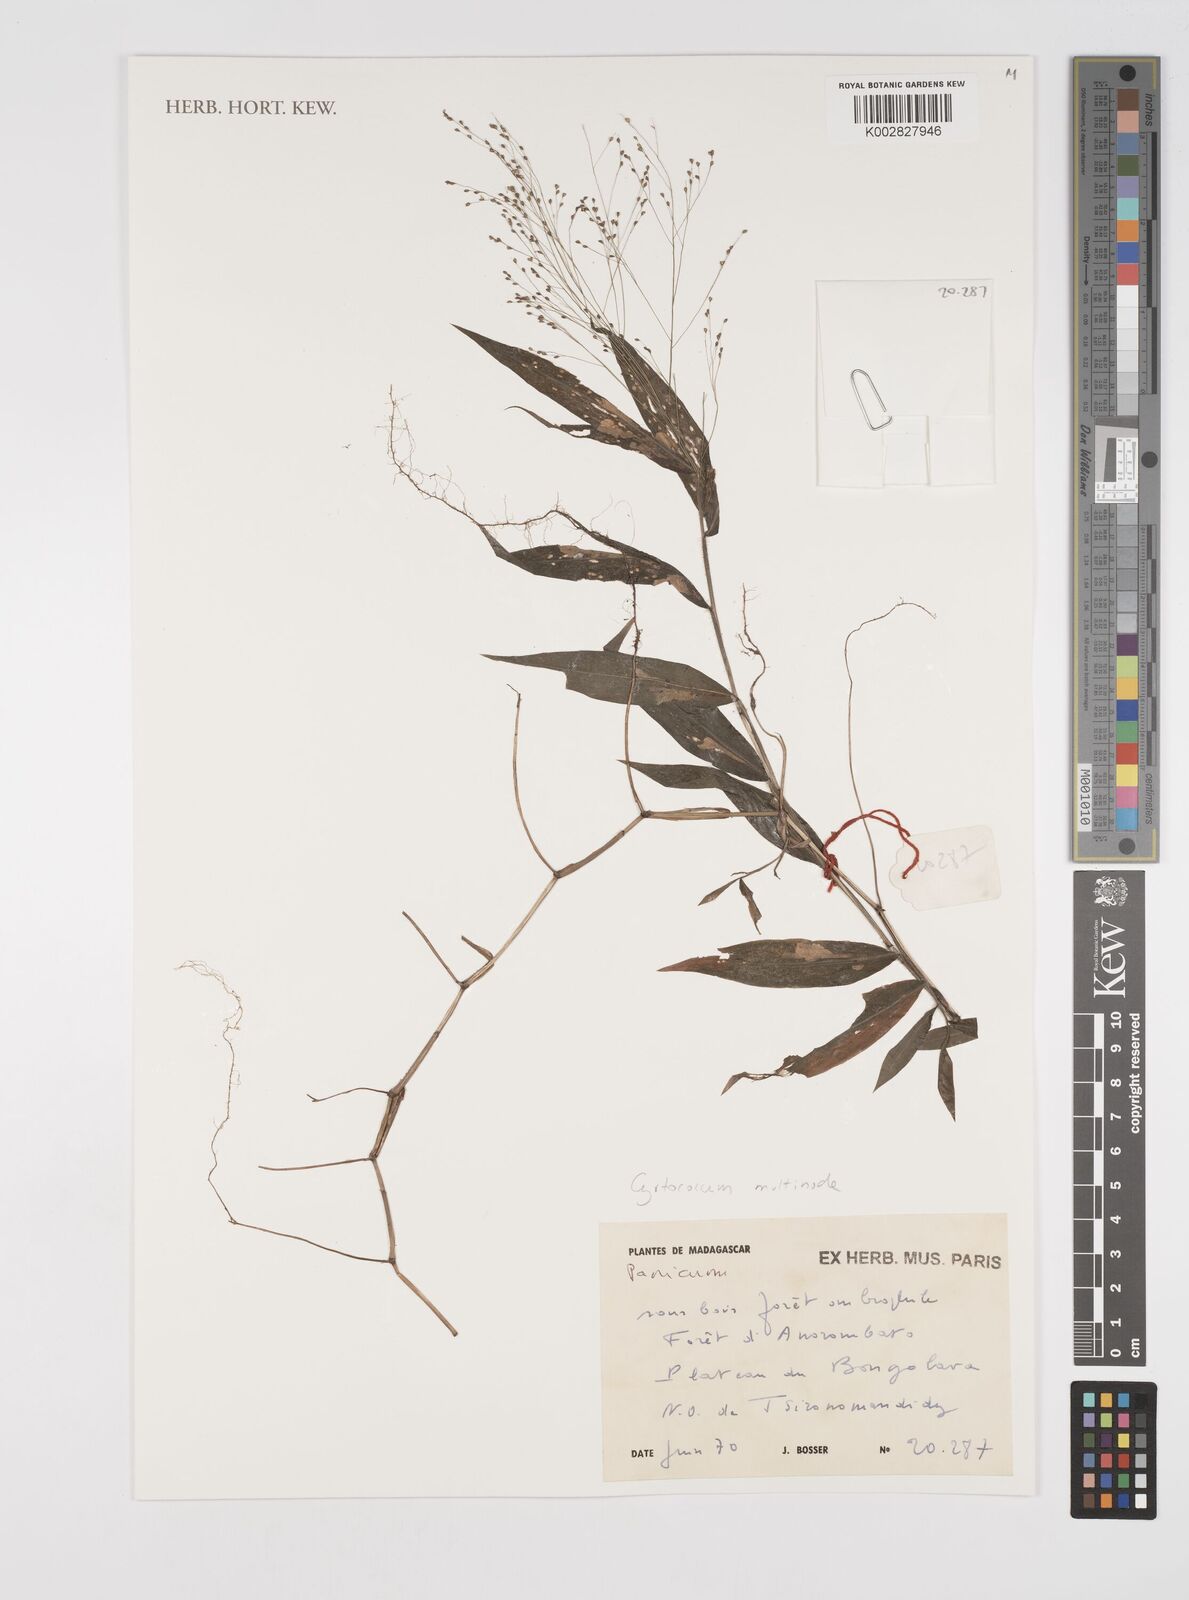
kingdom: Plantae
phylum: Tracheophyta
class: Liliopsida
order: Poales
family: Poaceae
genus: Cyrtococcum
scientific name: Cyrtococcum multinode
